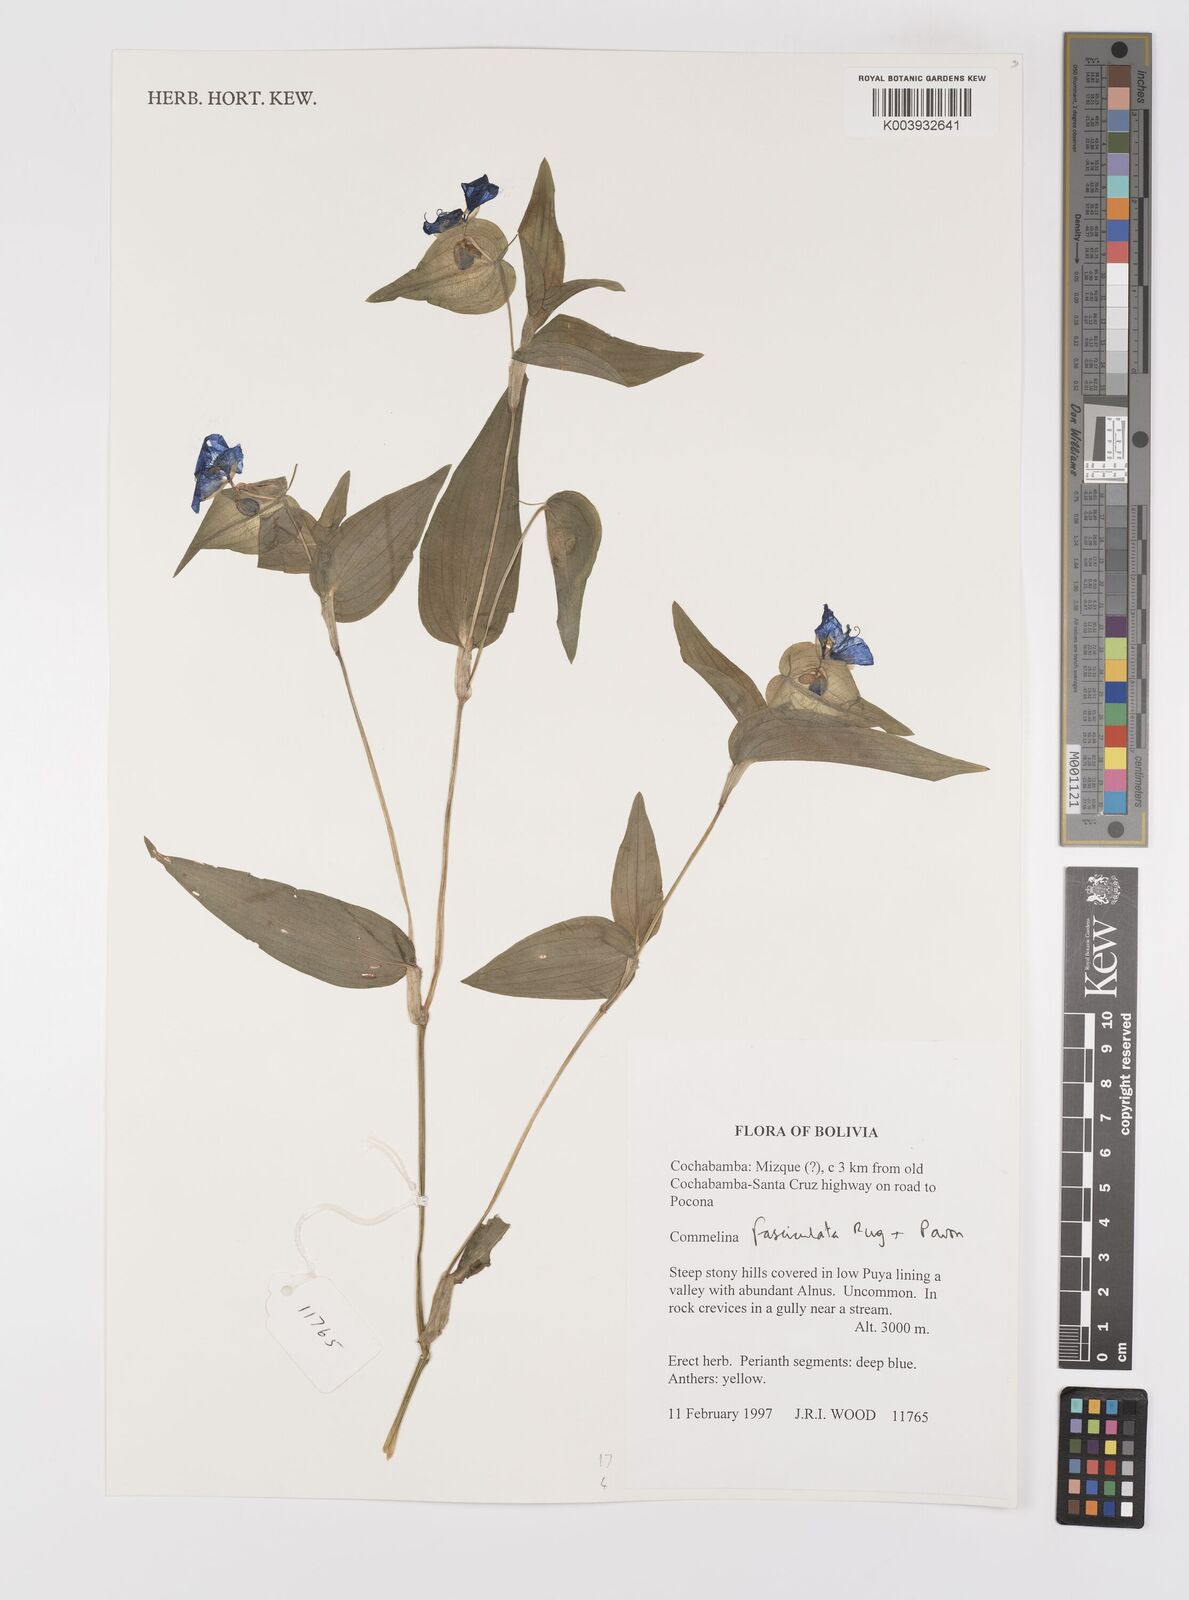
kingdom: Plantae
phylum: Tracheophyta
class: Liliopsida
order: Commelinales
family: Commelinaceae
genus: Commelina
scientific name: Commelina tuberosa
